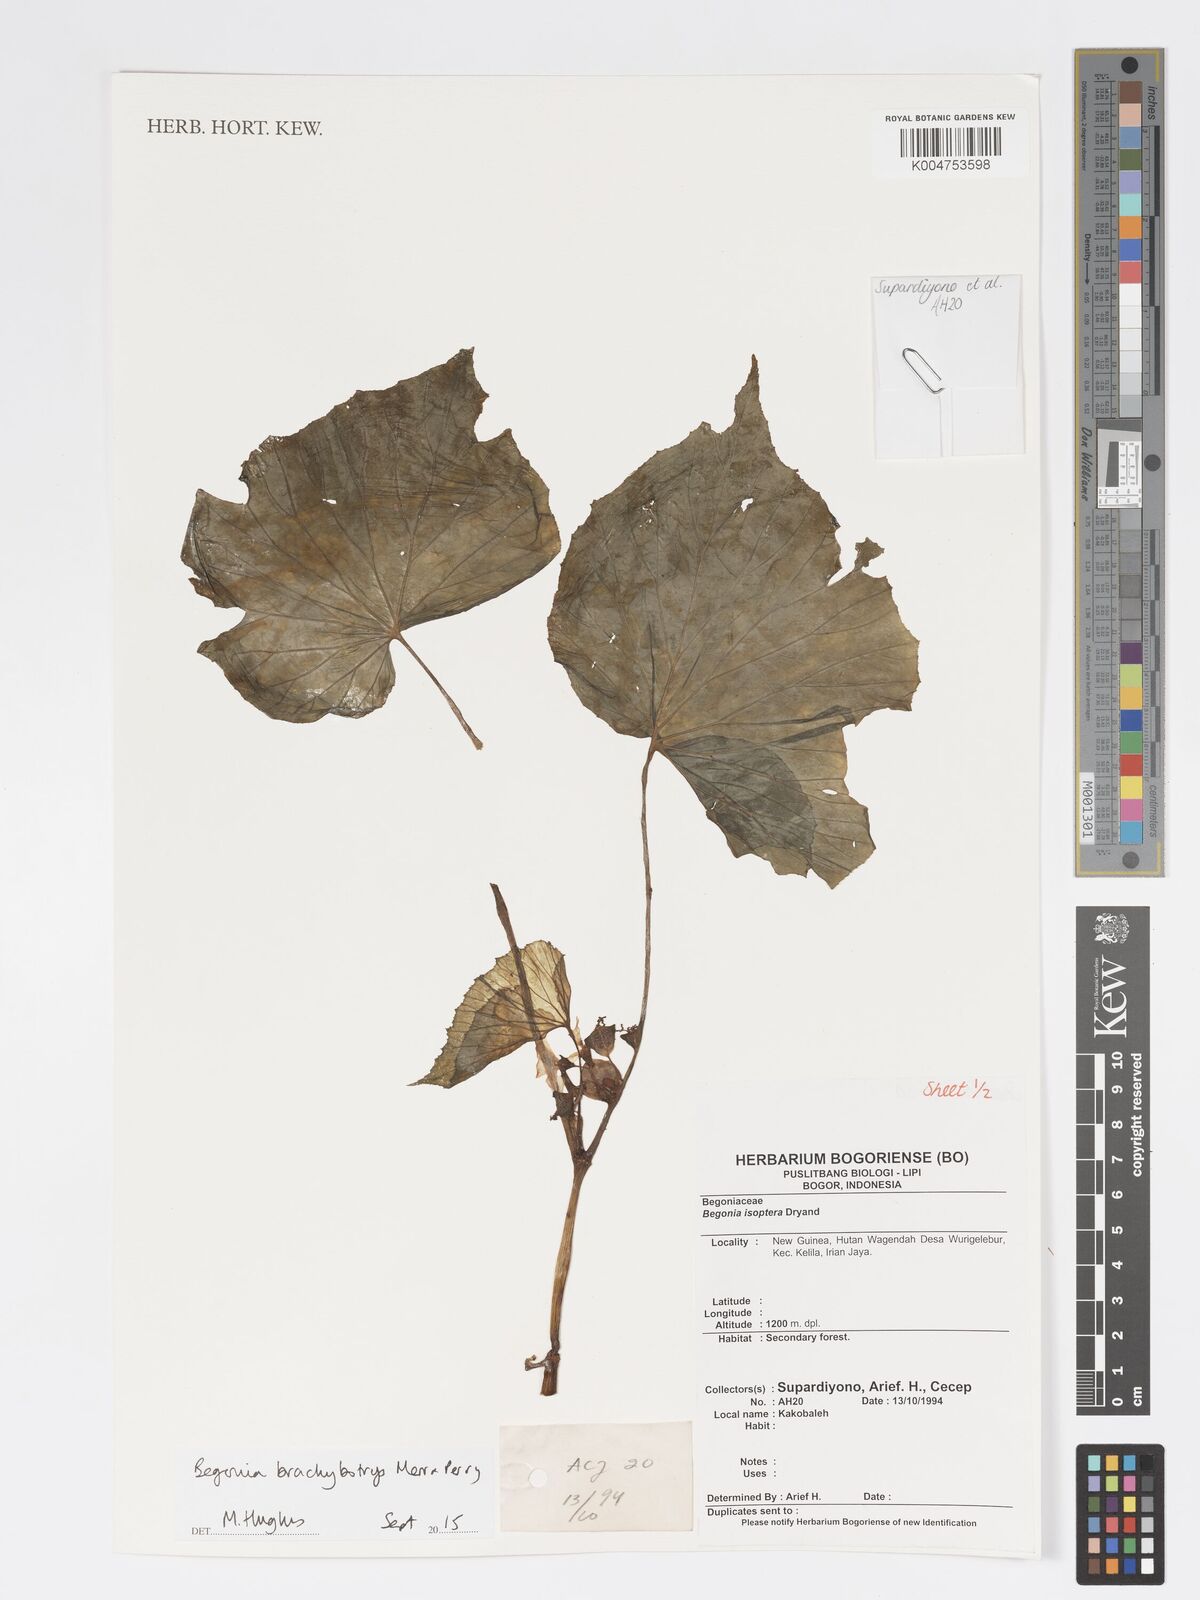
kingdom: Plantae
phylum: Tracheophyta
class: Magnoliopsida
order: Cucurbitales
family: Begoniaceae
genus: Begonia
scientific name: Begonia brachybotrys
